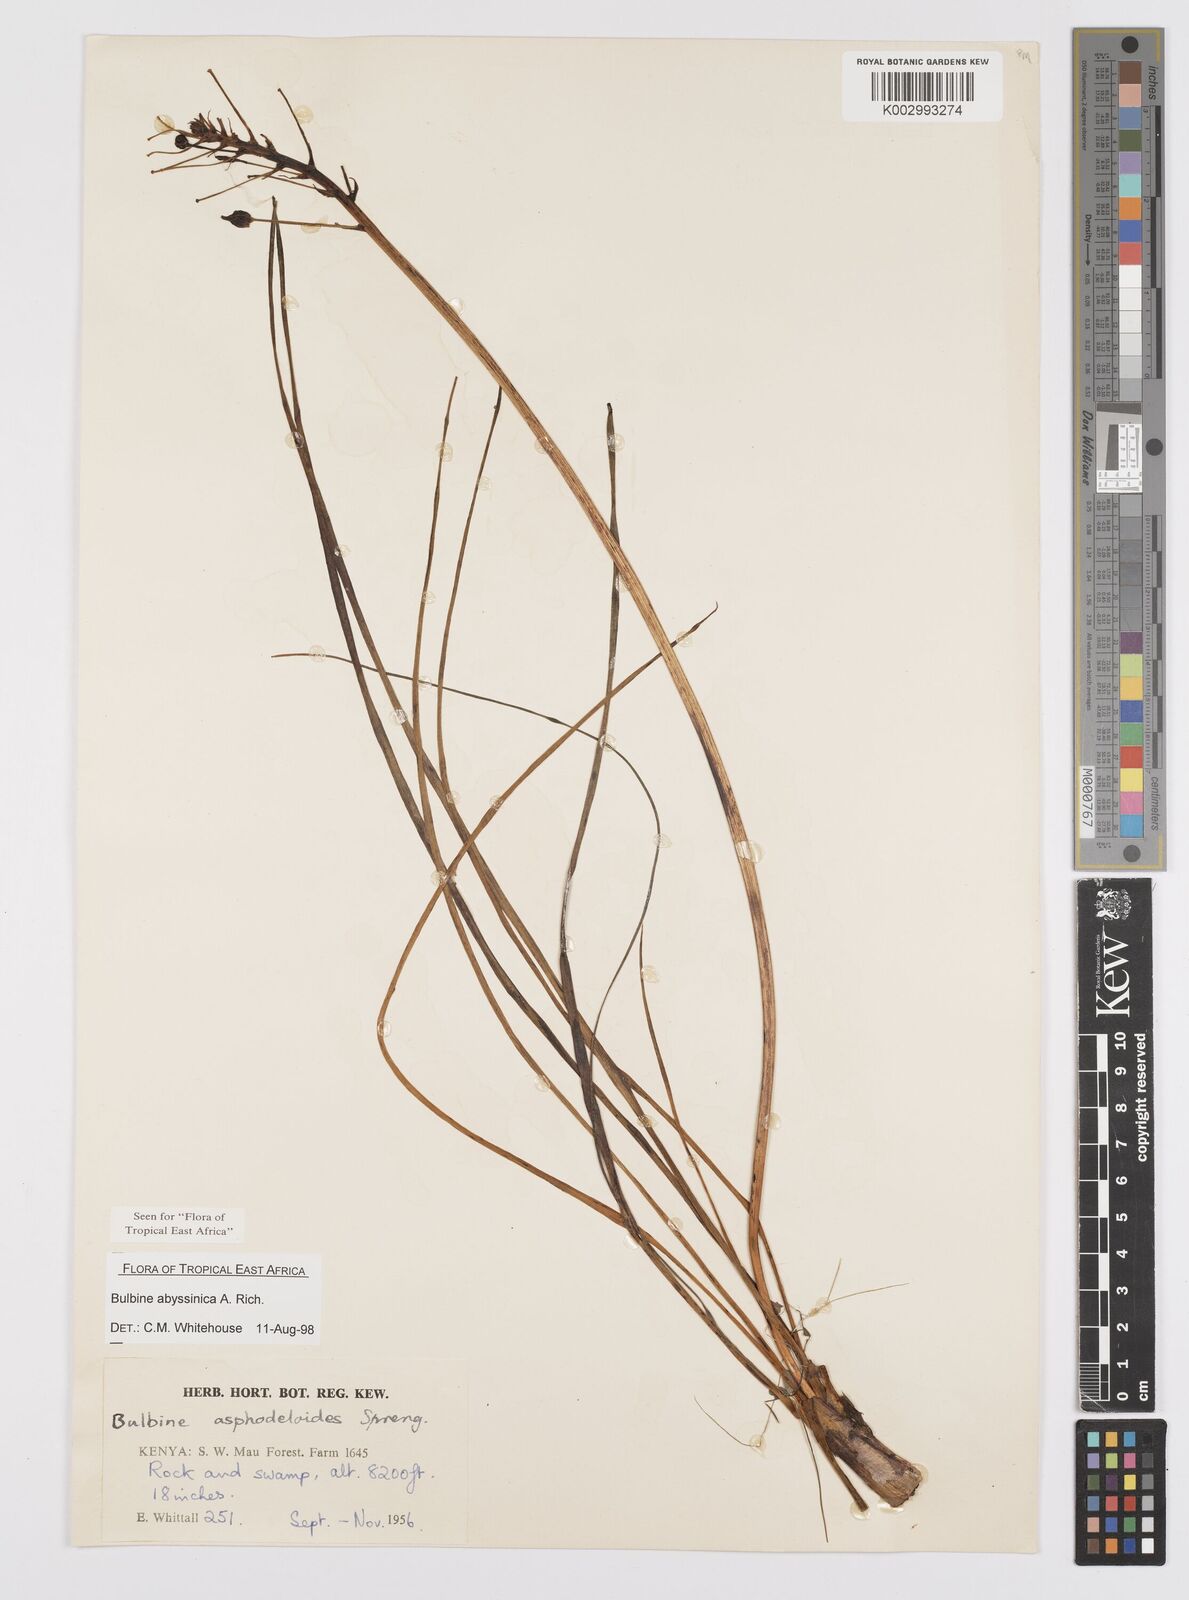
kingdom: Plantae
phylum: Tracheophyta
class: Liliopsida
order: Asparagales
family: Asphodelaceae
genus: Bulbine
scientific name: Bulbine abyssinica
